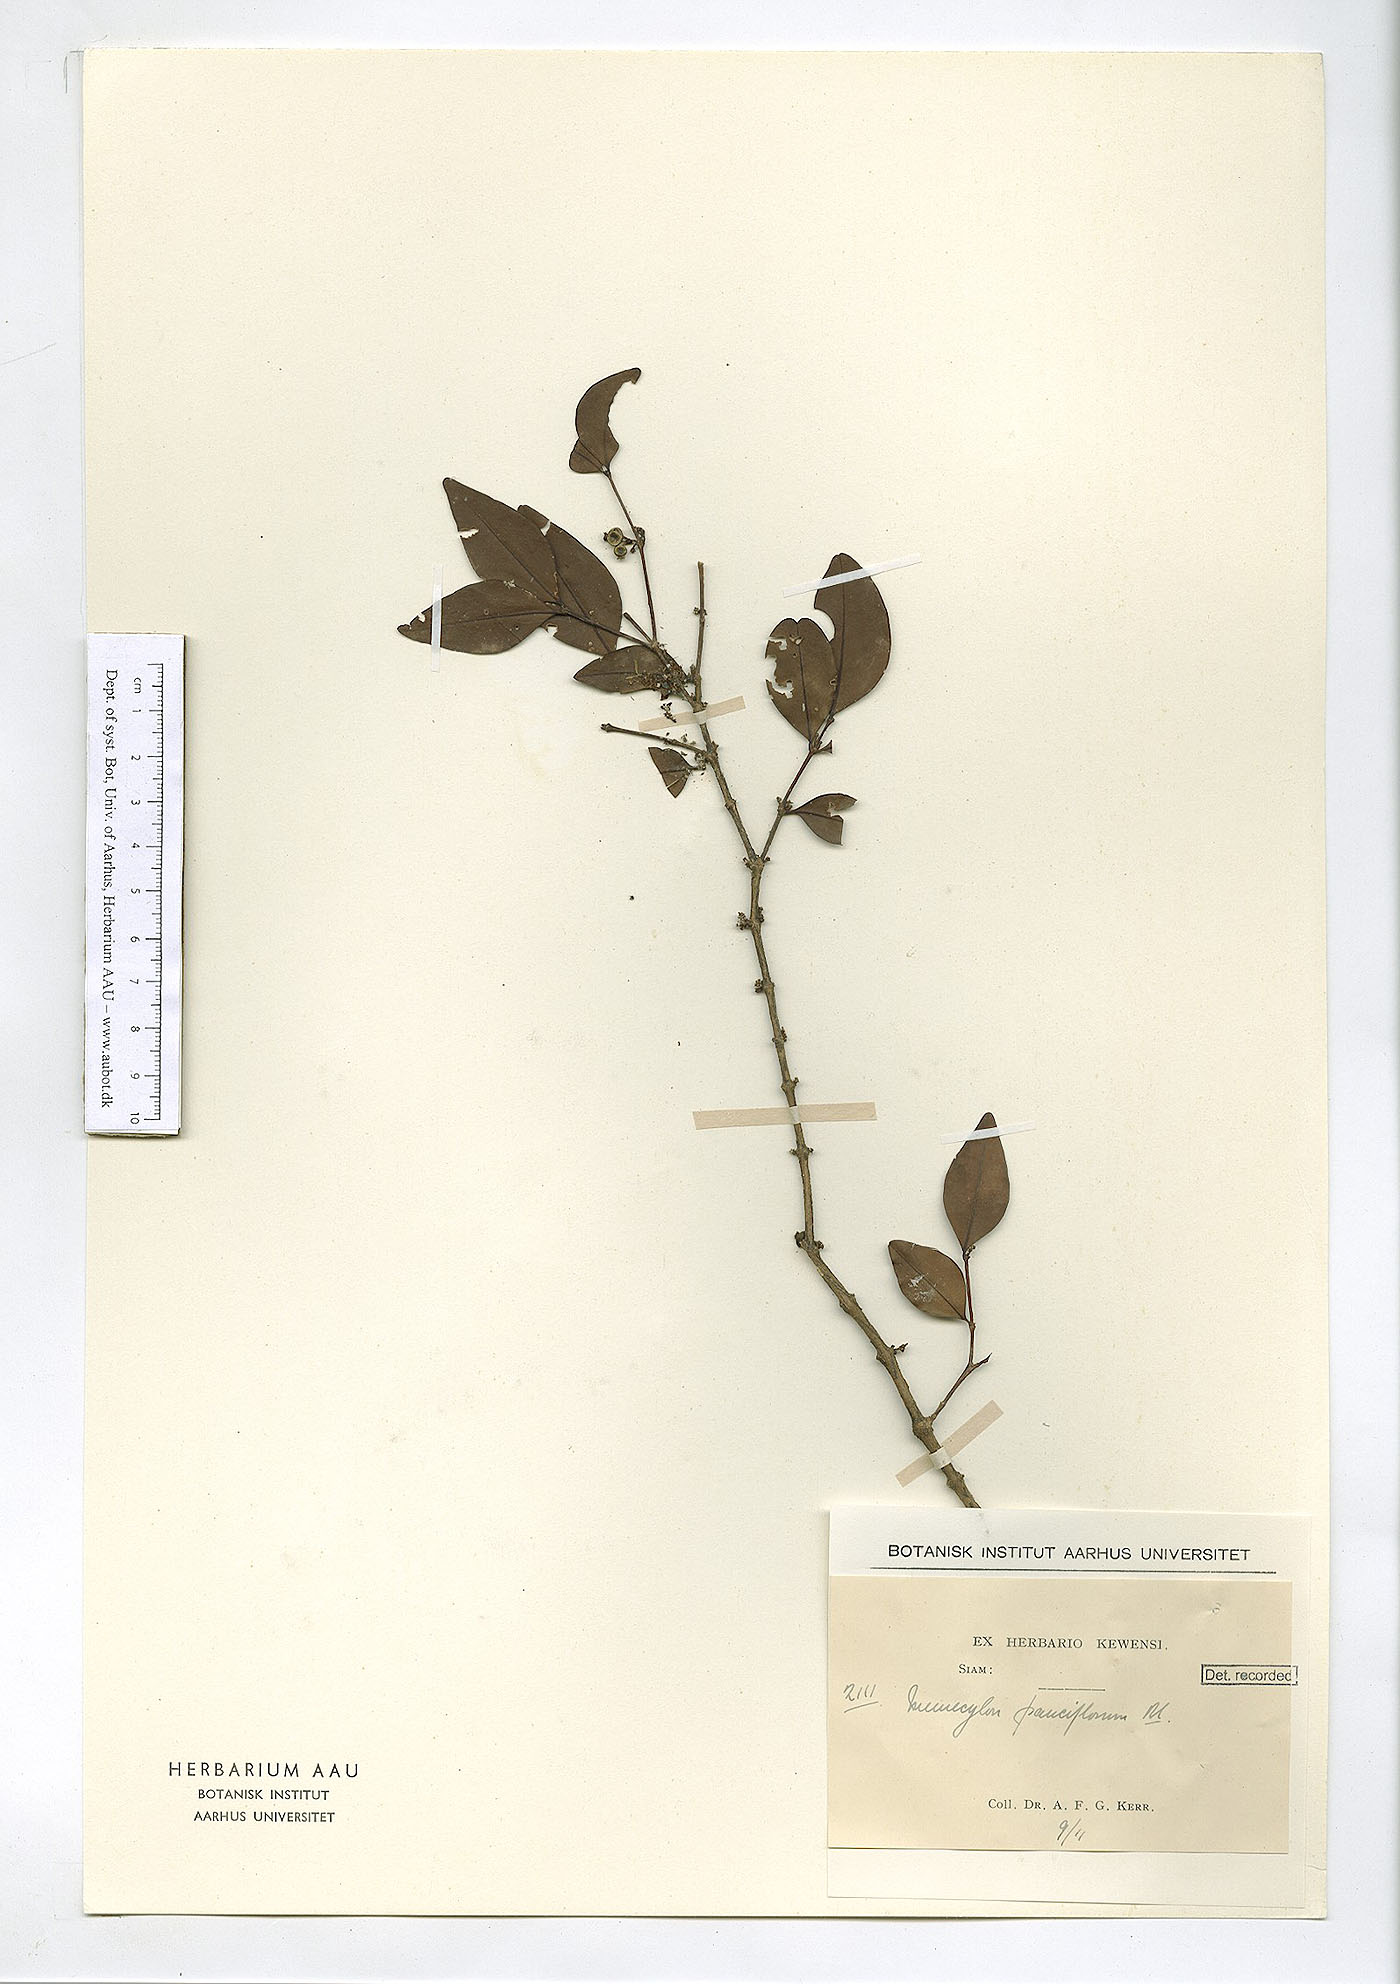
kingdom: Plantae
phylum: Tracheophyta
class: Magnoliopsida
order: Myrtales
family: Melastomataceae
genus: Memecylon
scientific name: Memecylon pauciflorum
